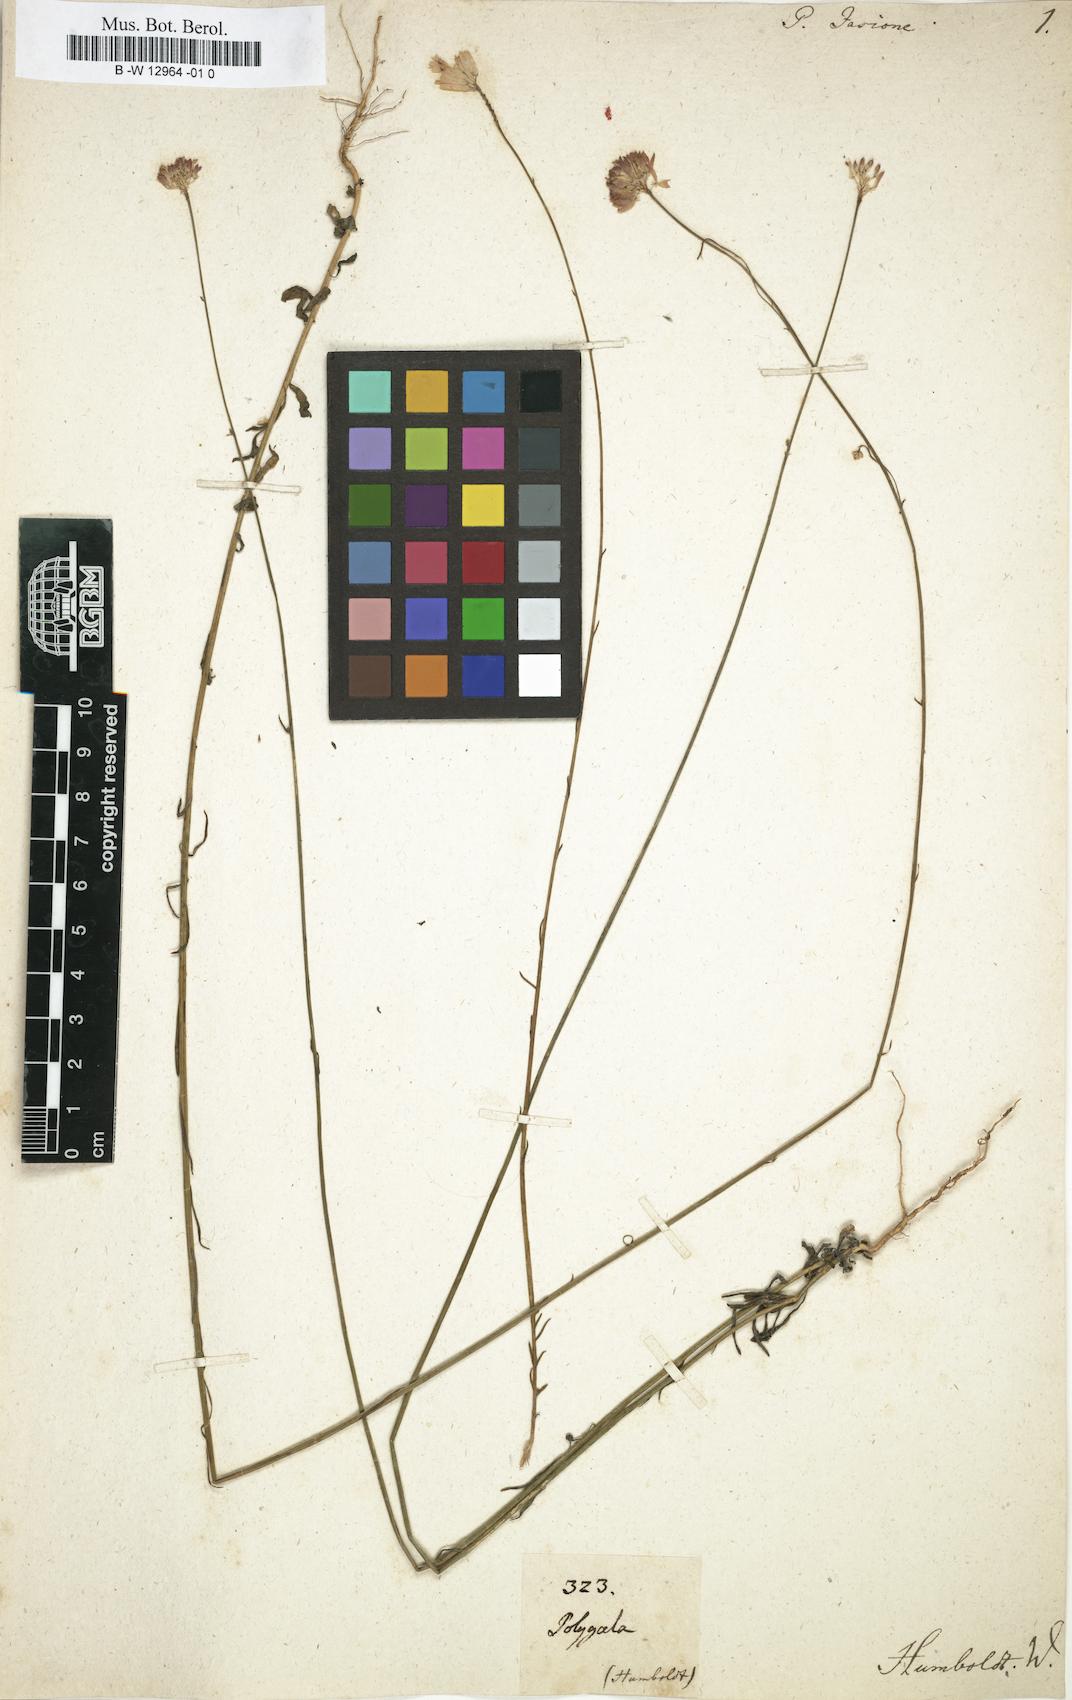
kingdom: Plantae
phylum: Tracheophyta
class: Magnoliopsida
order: Fabales
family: Polygalaceae
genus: Polygala
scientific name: Polygala longicaulis
